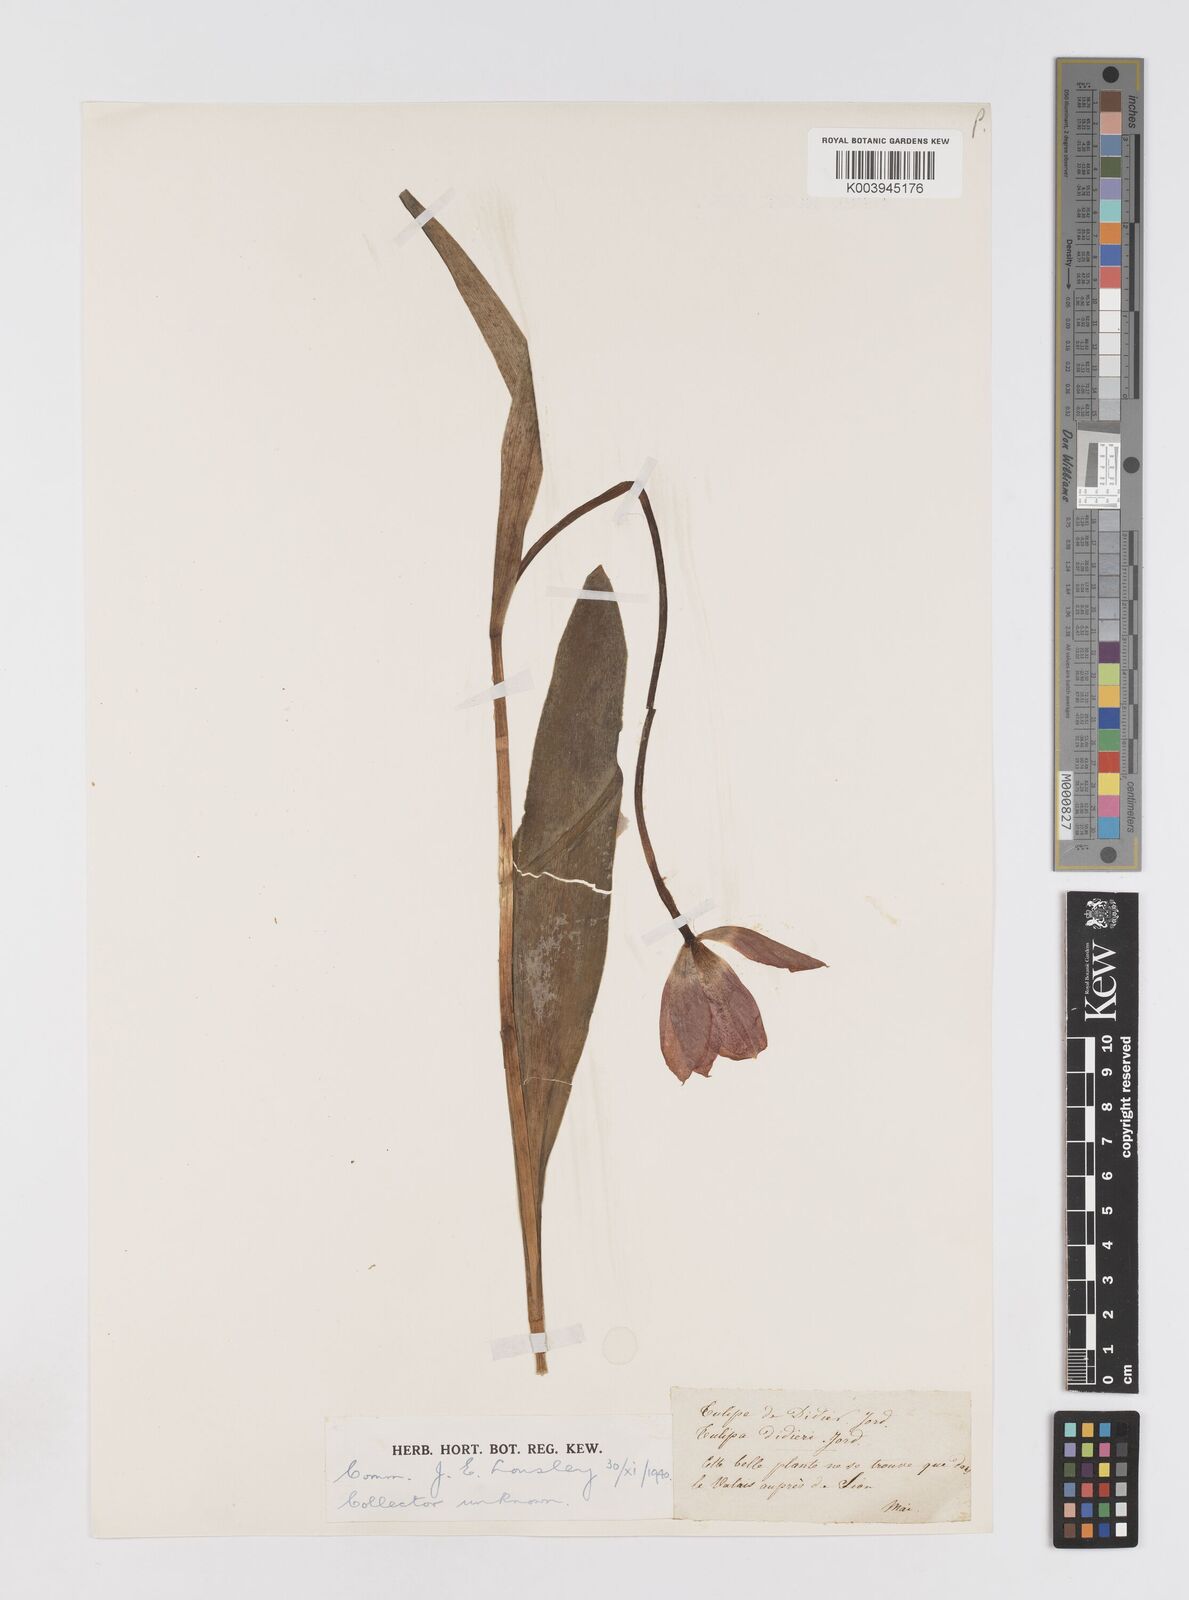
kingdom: Plantae
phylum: Tracheophyta
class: Liliopsida
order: Liliales
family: Liliaceae
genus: Tulipa
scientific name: Tulipa gesneriana
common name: Garden tulip
